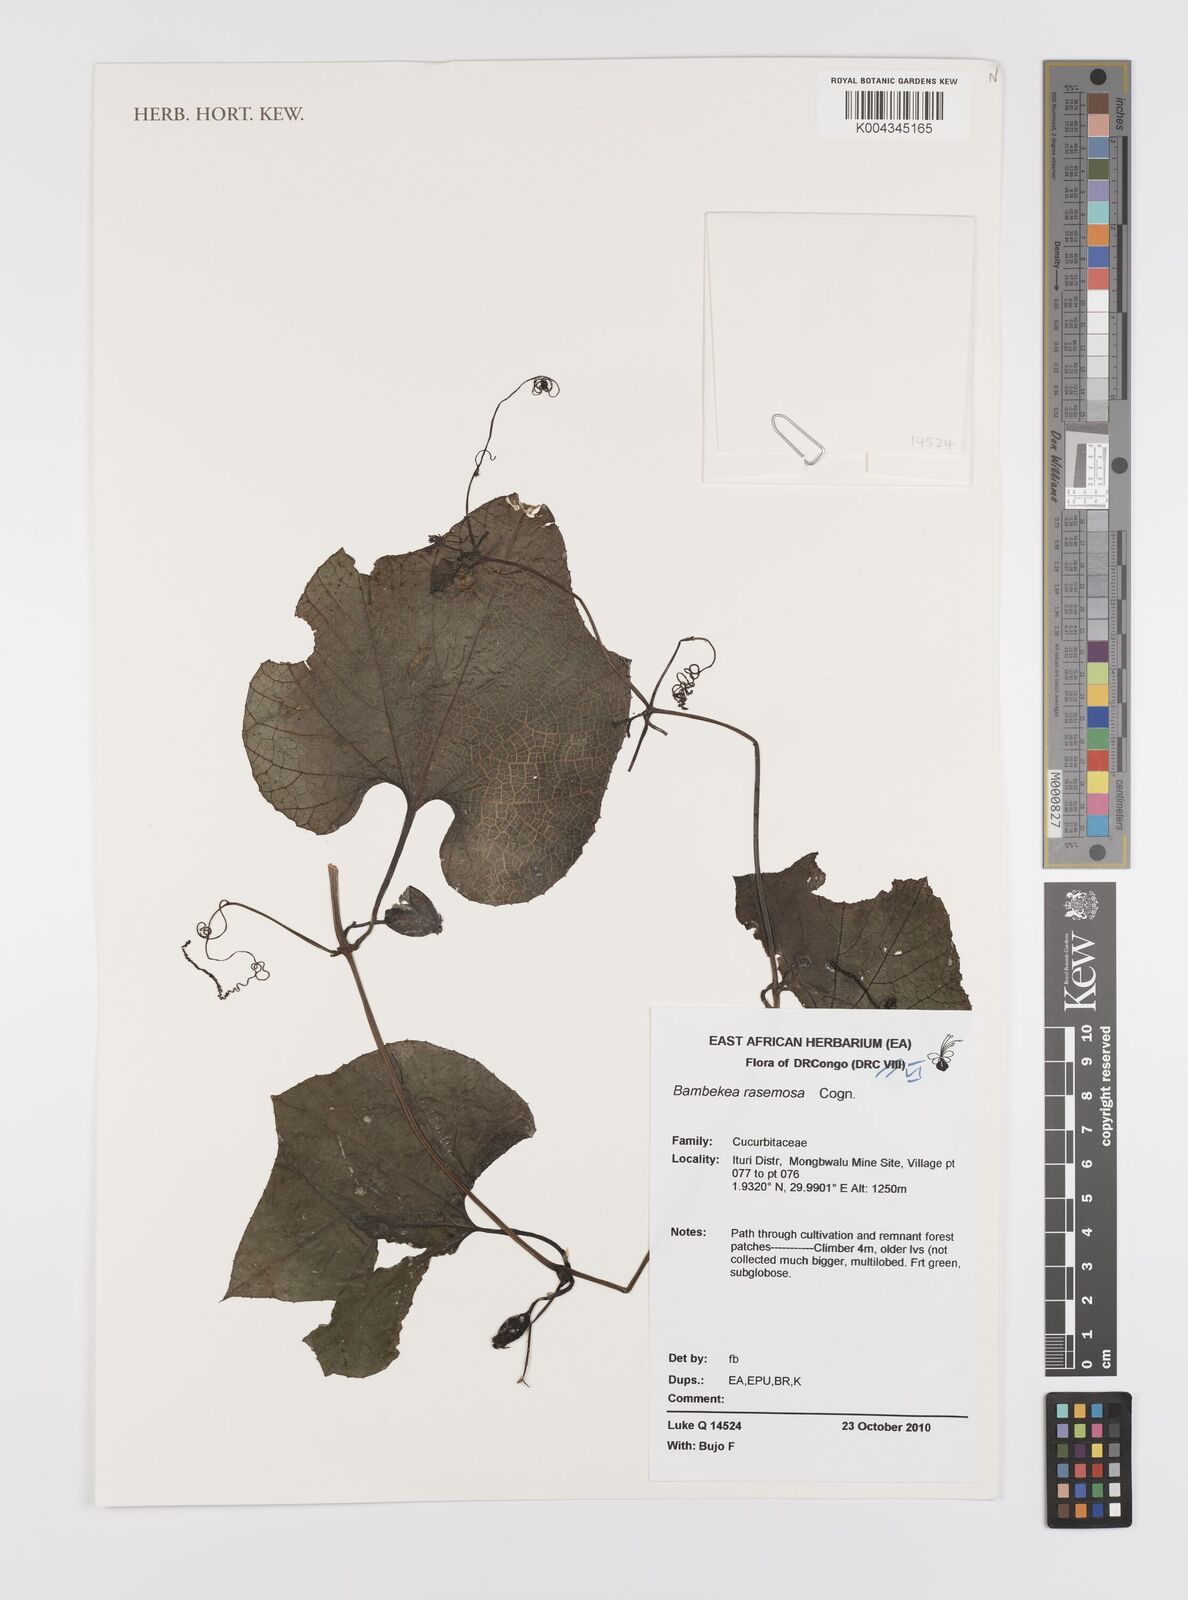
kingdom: Plantae
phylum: Tracheophyta
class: Magnoliopsida
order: Cucurbitales
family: Cucurbitaceae
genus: Bambekea
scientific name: Bambekea racemosa
